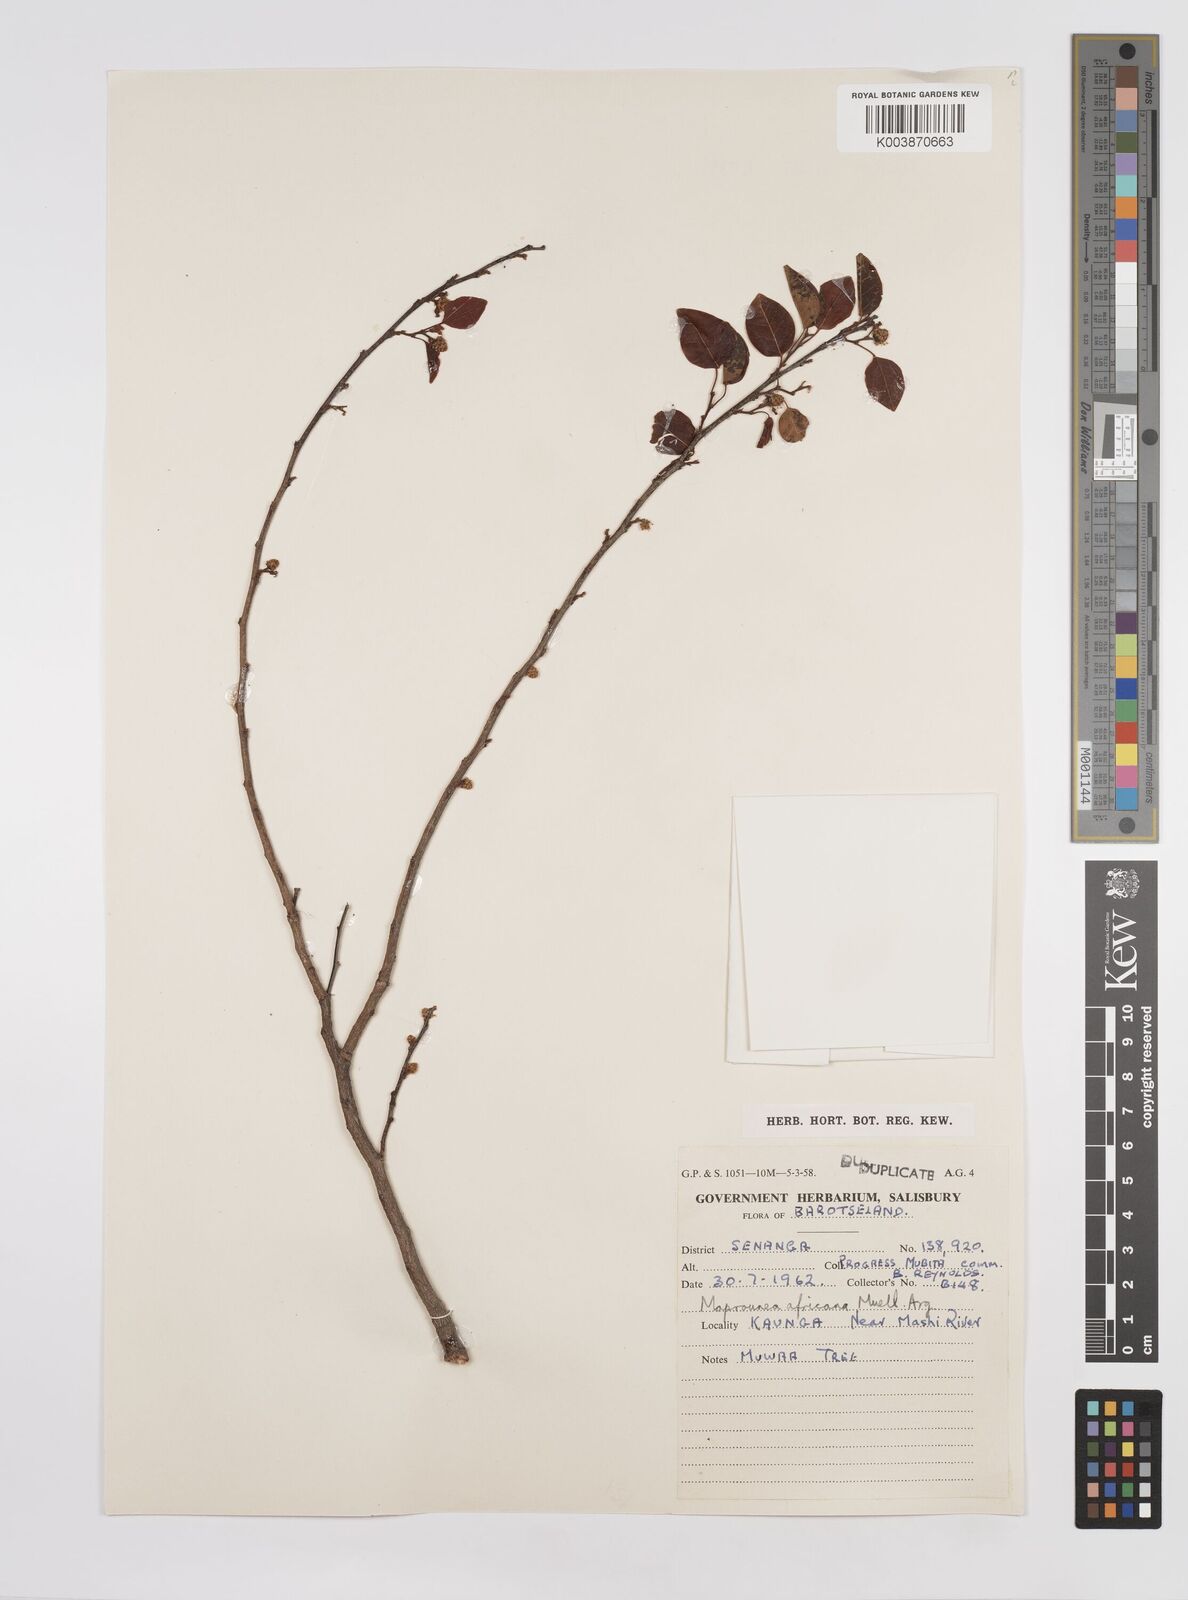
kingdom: Plantae
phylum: Tracheophyta
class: Magnoliopsida
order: Malpighiales
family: Euphorbiaceae
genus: Maprounea
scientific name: Maprounea africana
